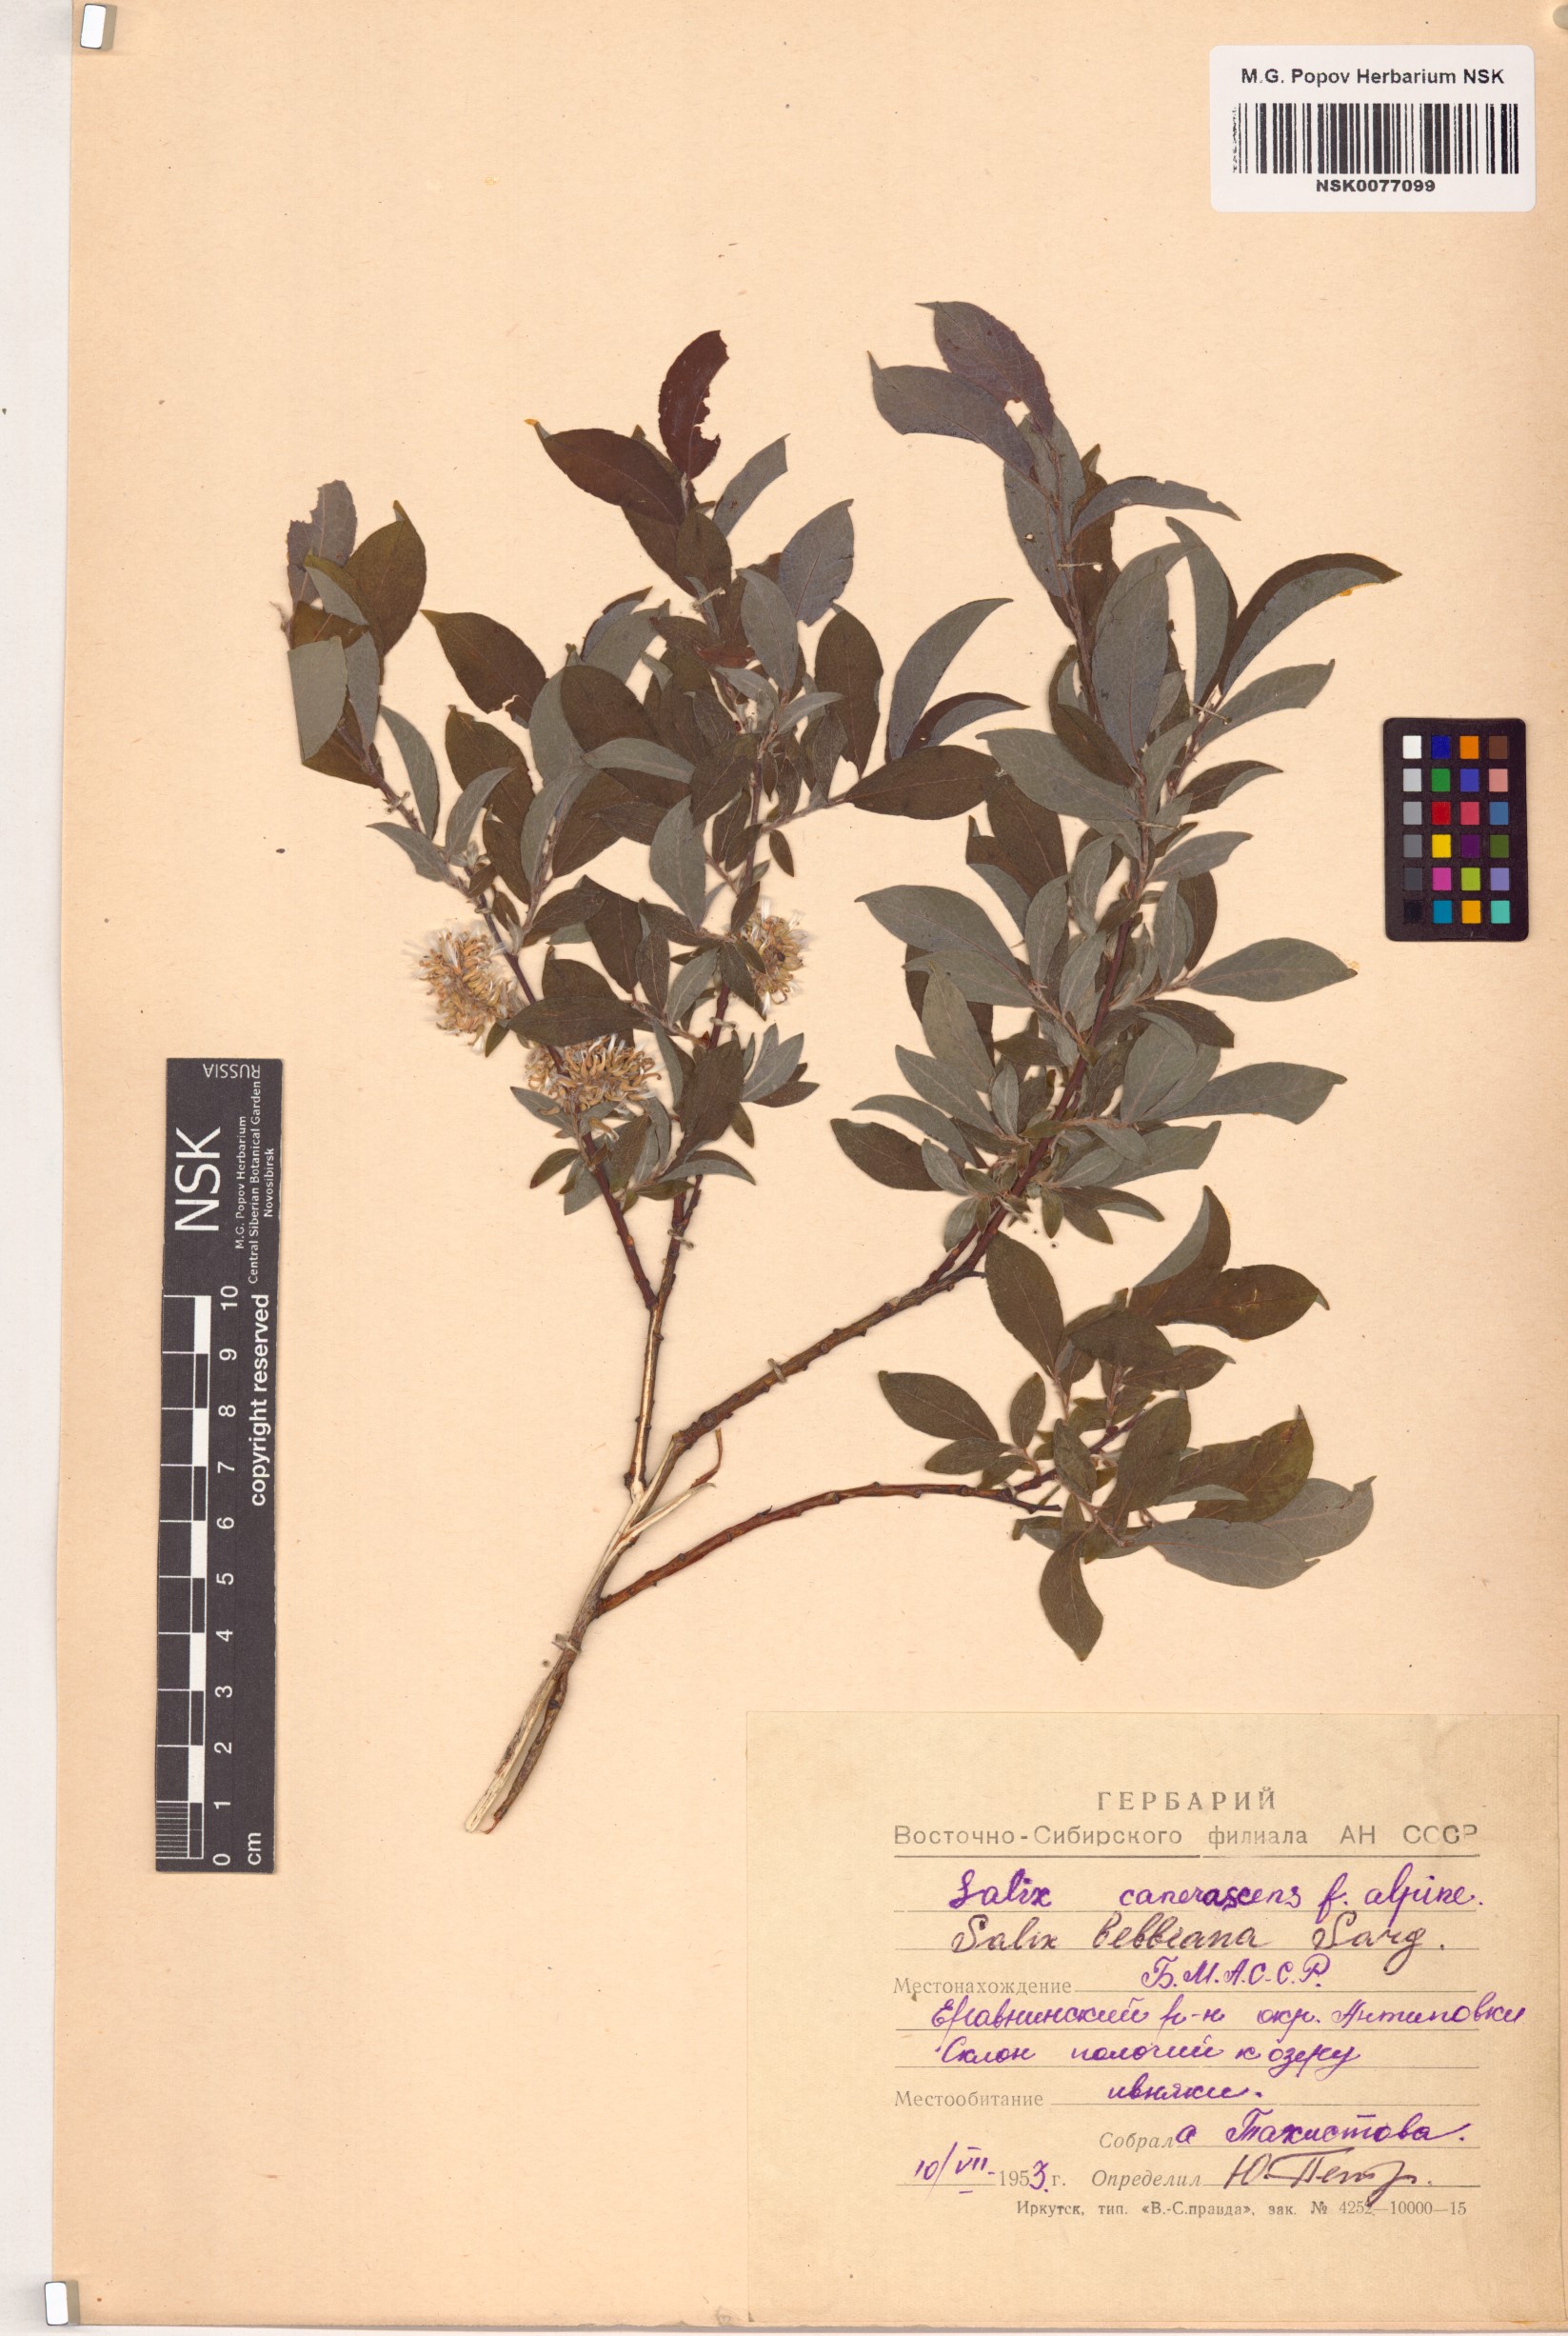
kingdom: Plantae
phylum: Tracheophyta
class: Magnoliopsida
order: Malpighiales
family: Salicaceae
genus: Salix
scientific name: Salix bebbiana
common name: Bebb's willow
